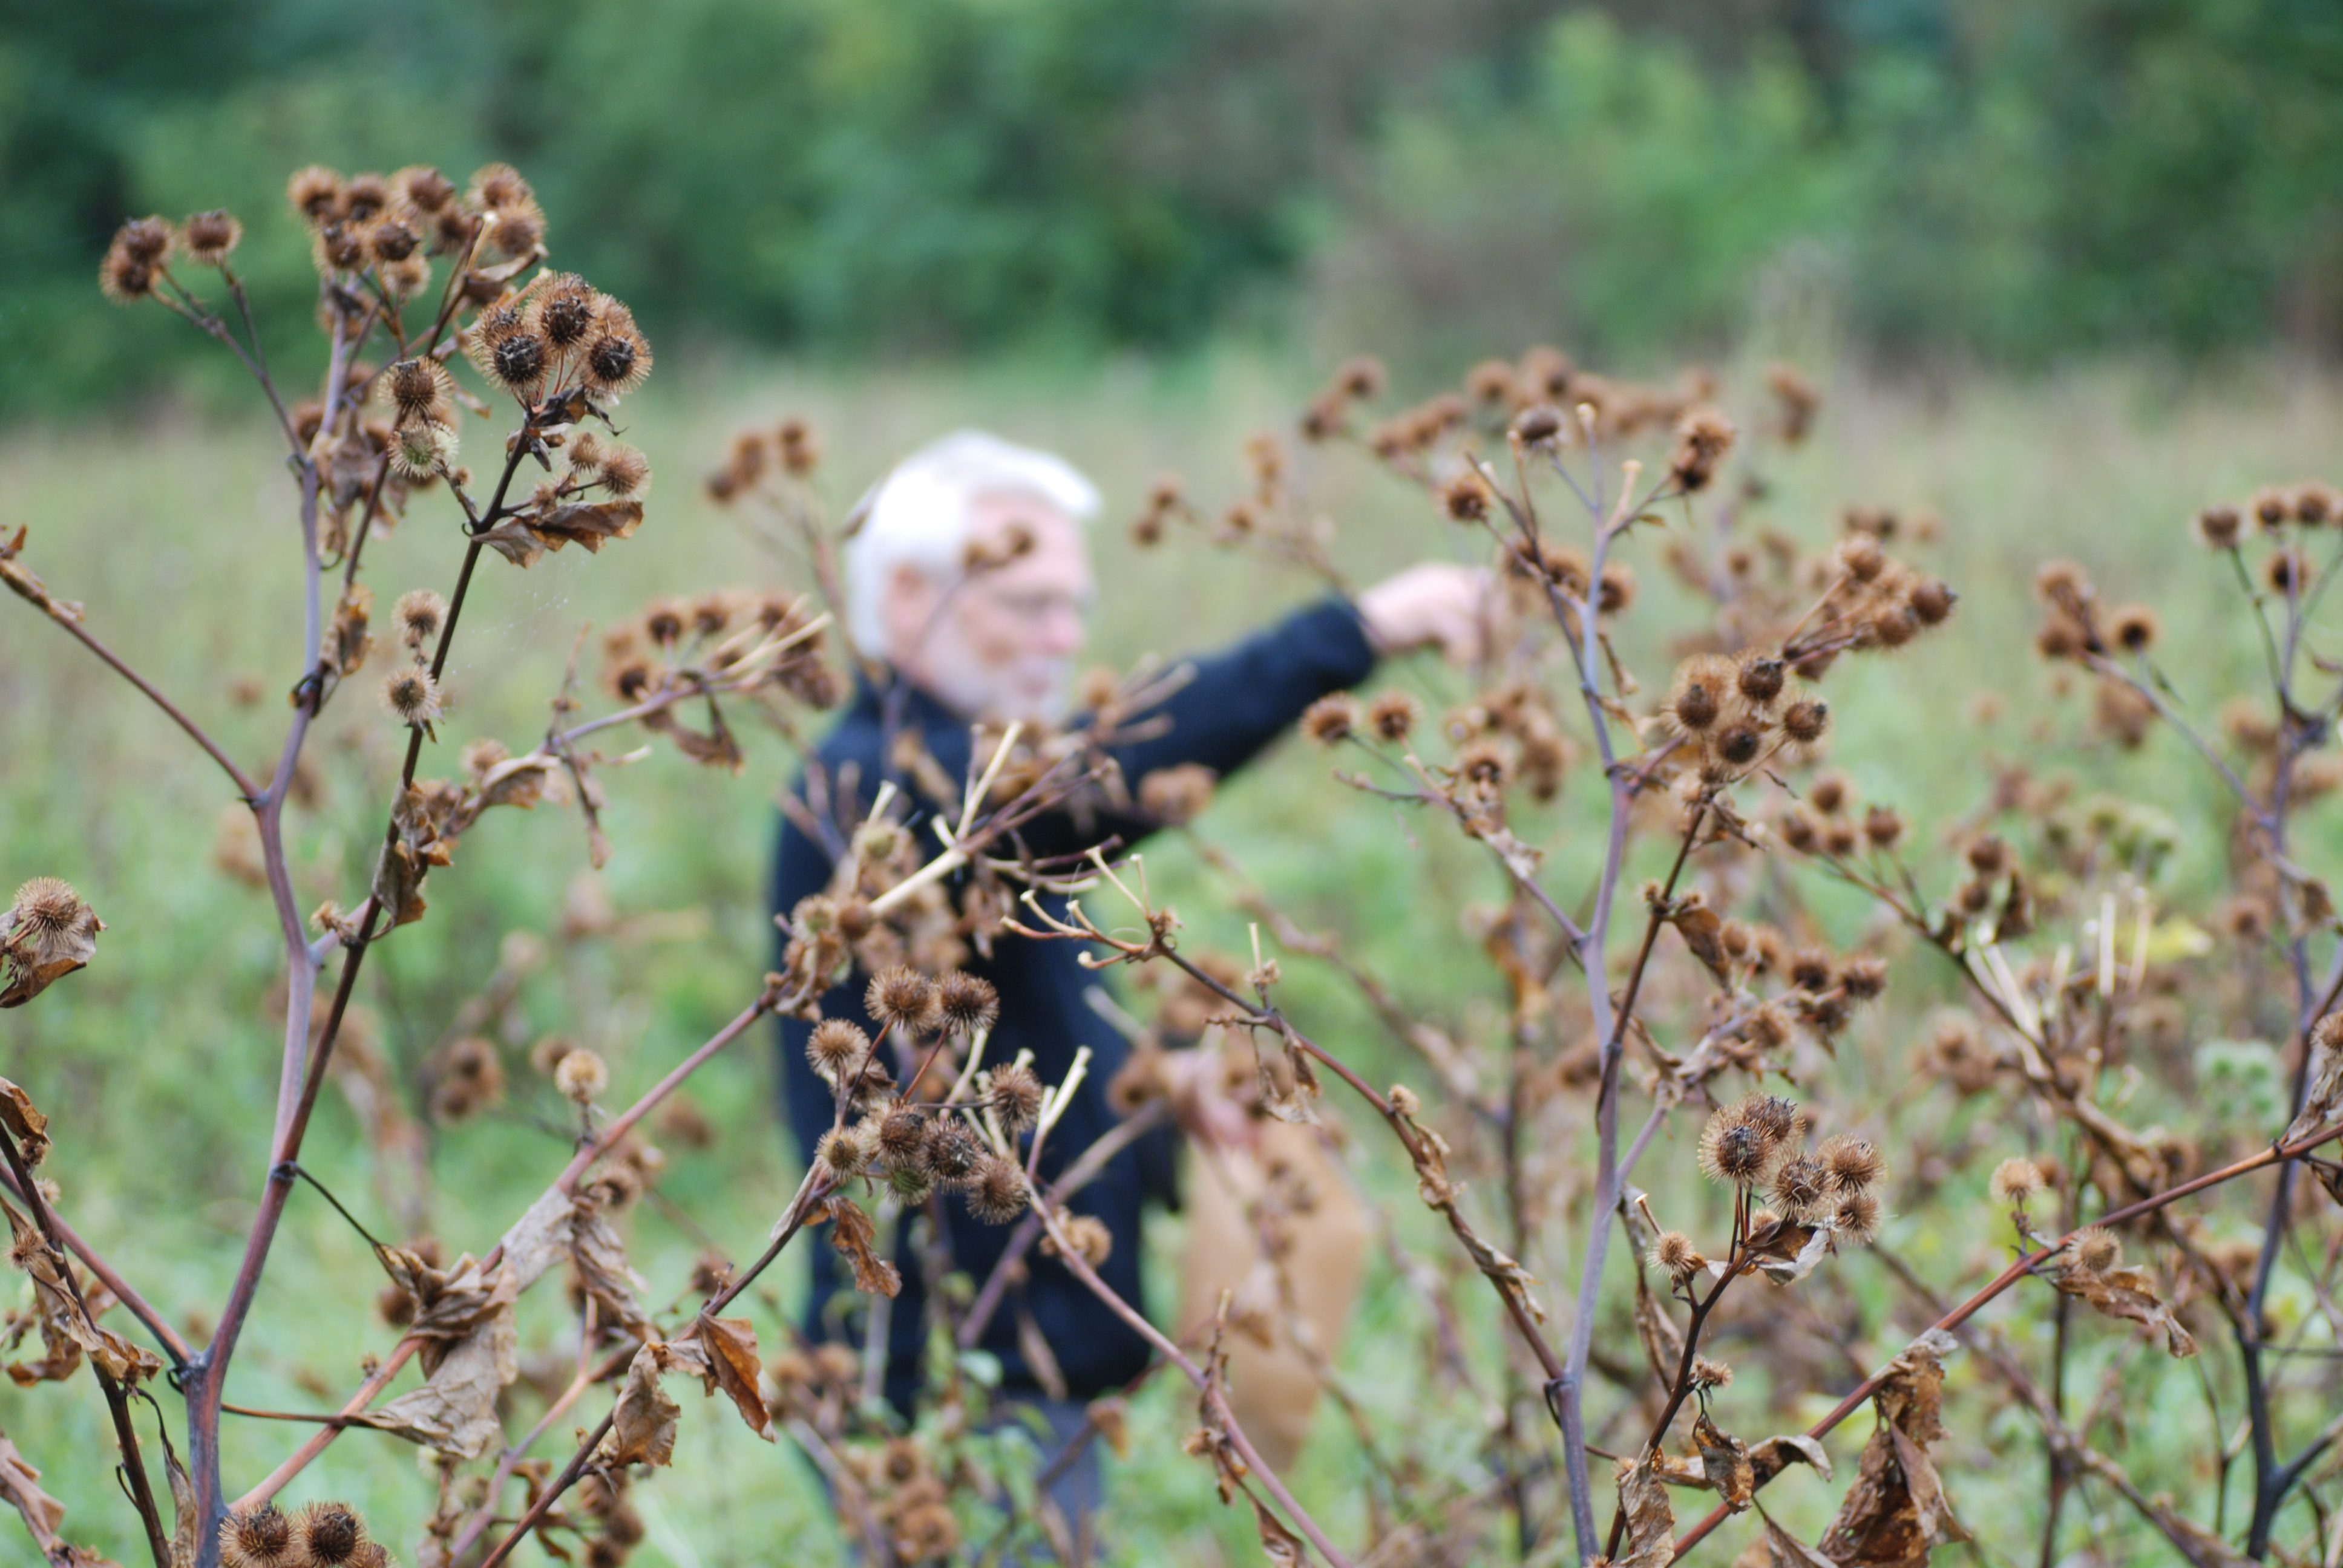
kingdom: Plantae
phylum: Tracheophyta
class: Magnoliopsida
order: Asterales
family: Asteraceae
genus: Arctium
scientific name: Arctium lappa
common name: Greater burdock
